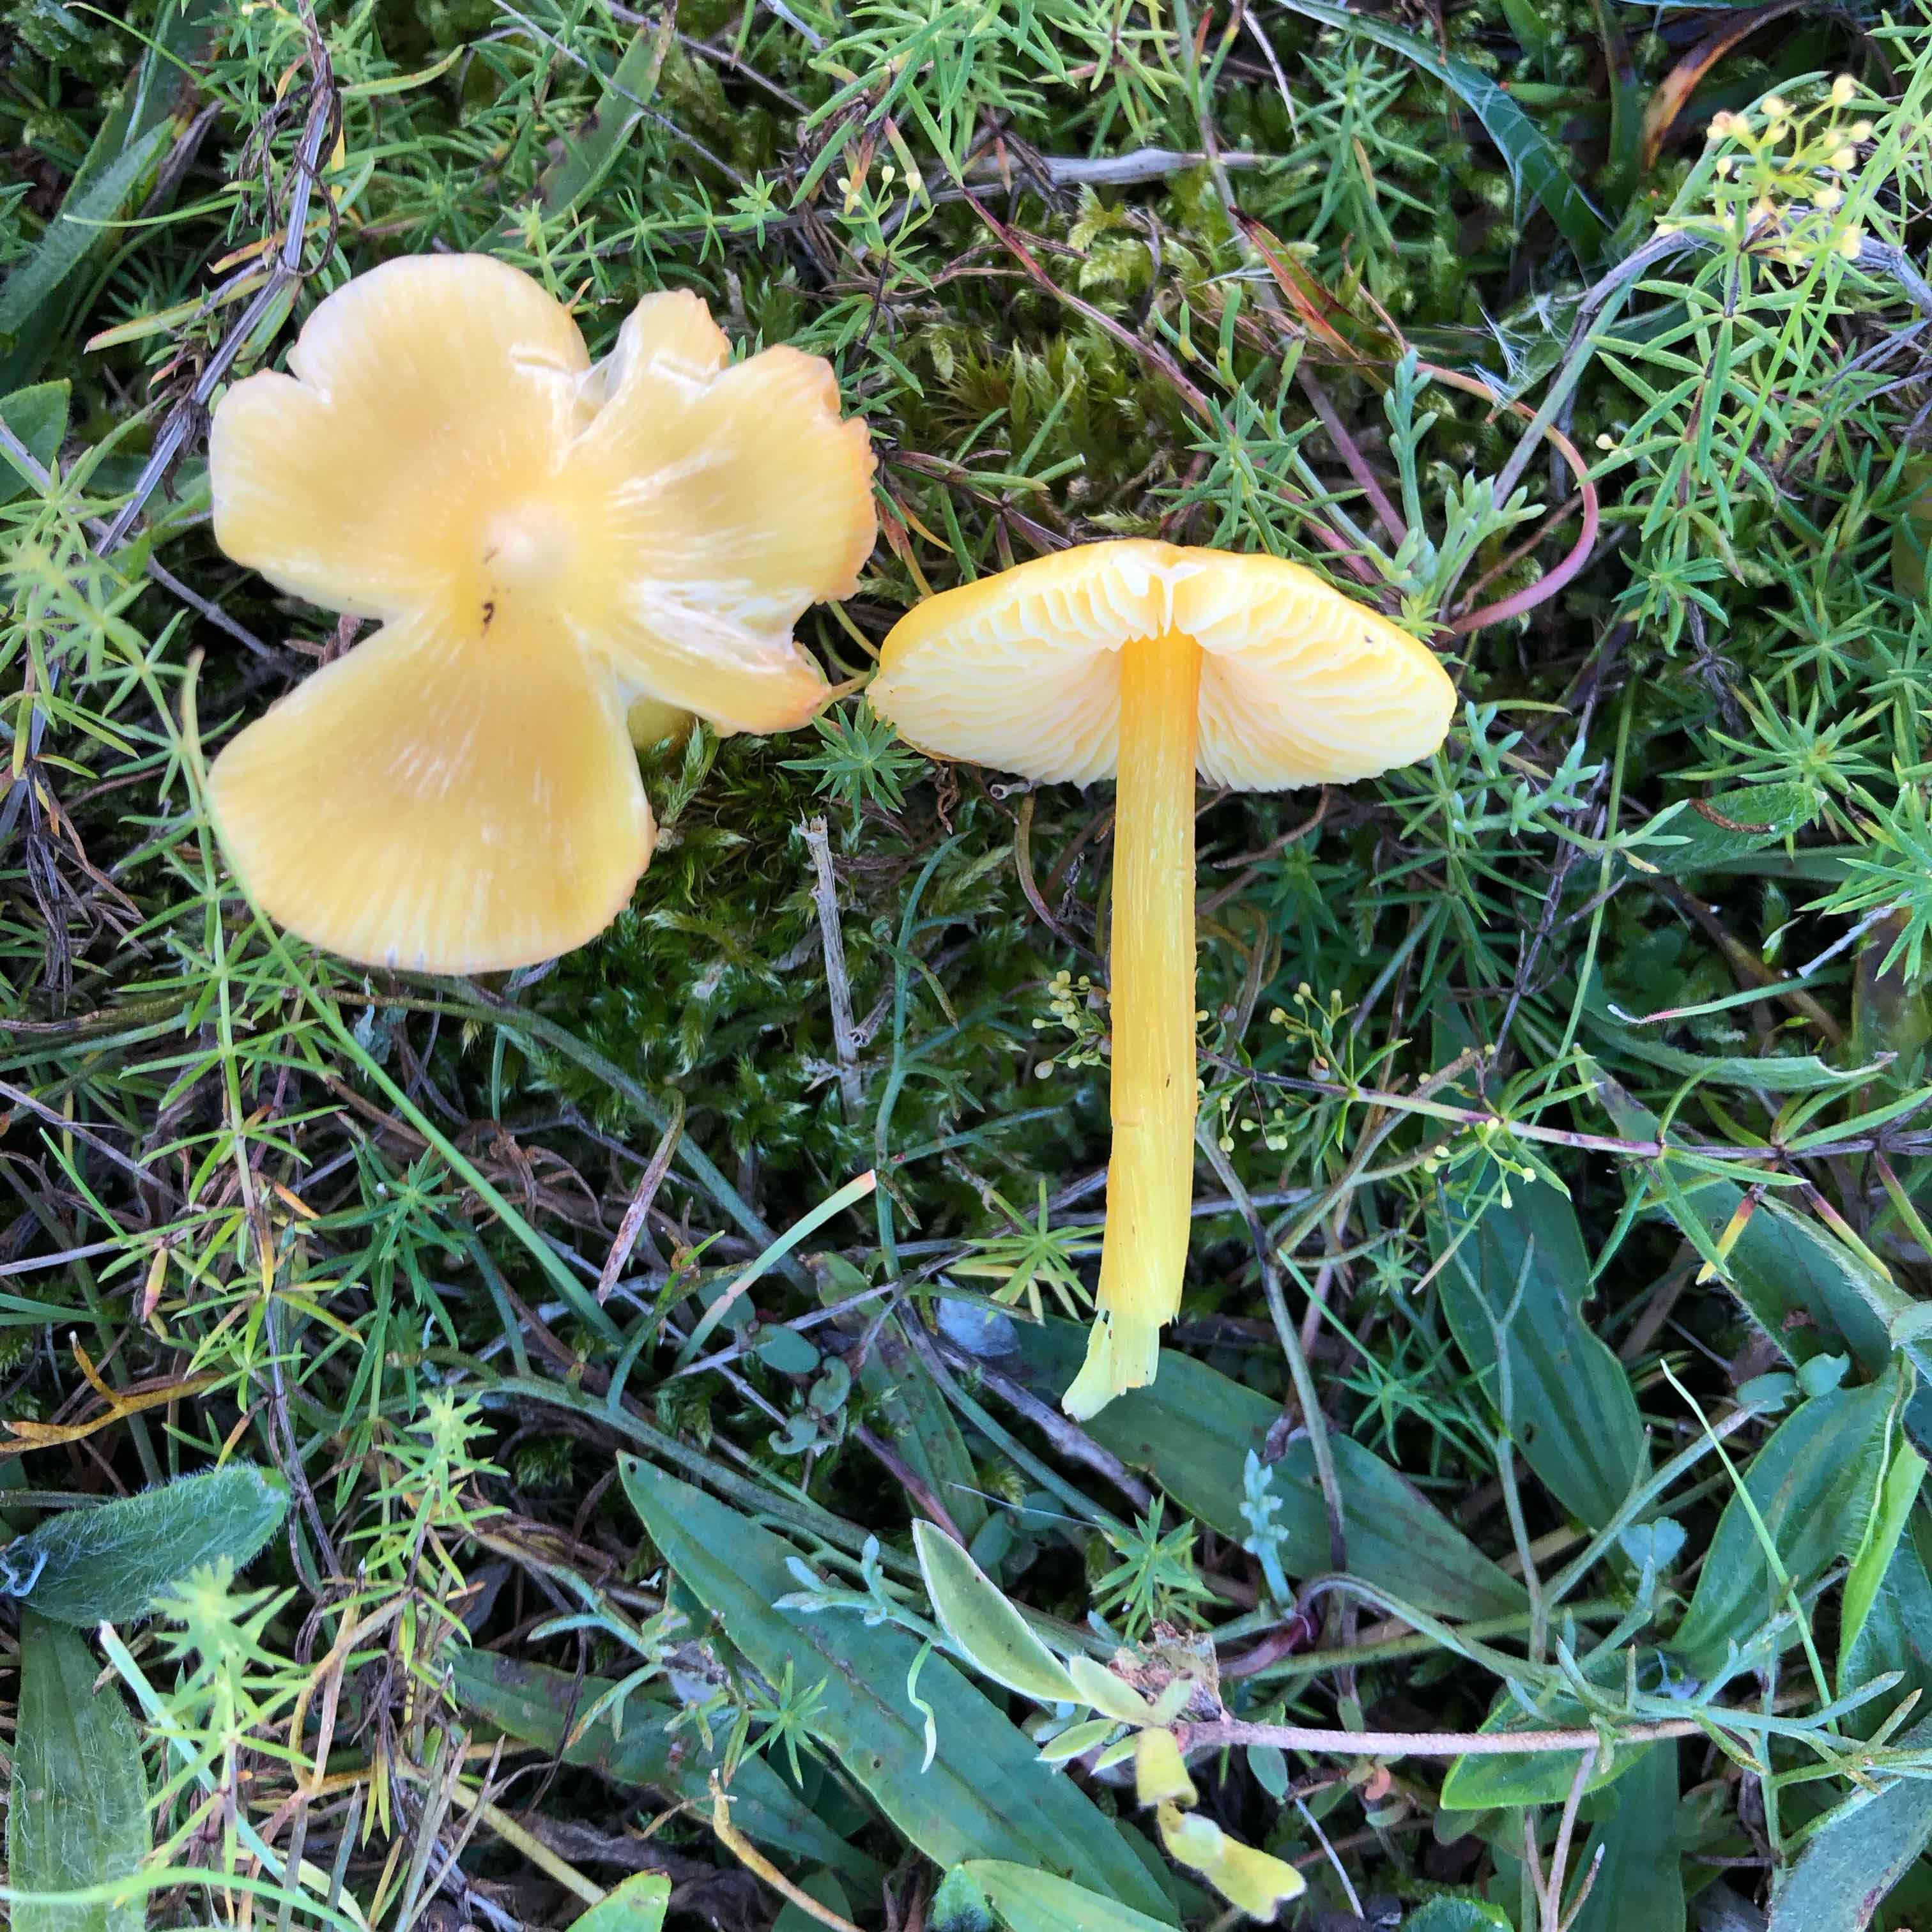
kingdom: Fungi
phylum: Basidiomycota
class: Agaricomycetes
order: Agaricales
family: Hygrophoraceae
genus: Hygrocybe
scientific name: Hygrocybe chlorophana
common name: gul vokshat
